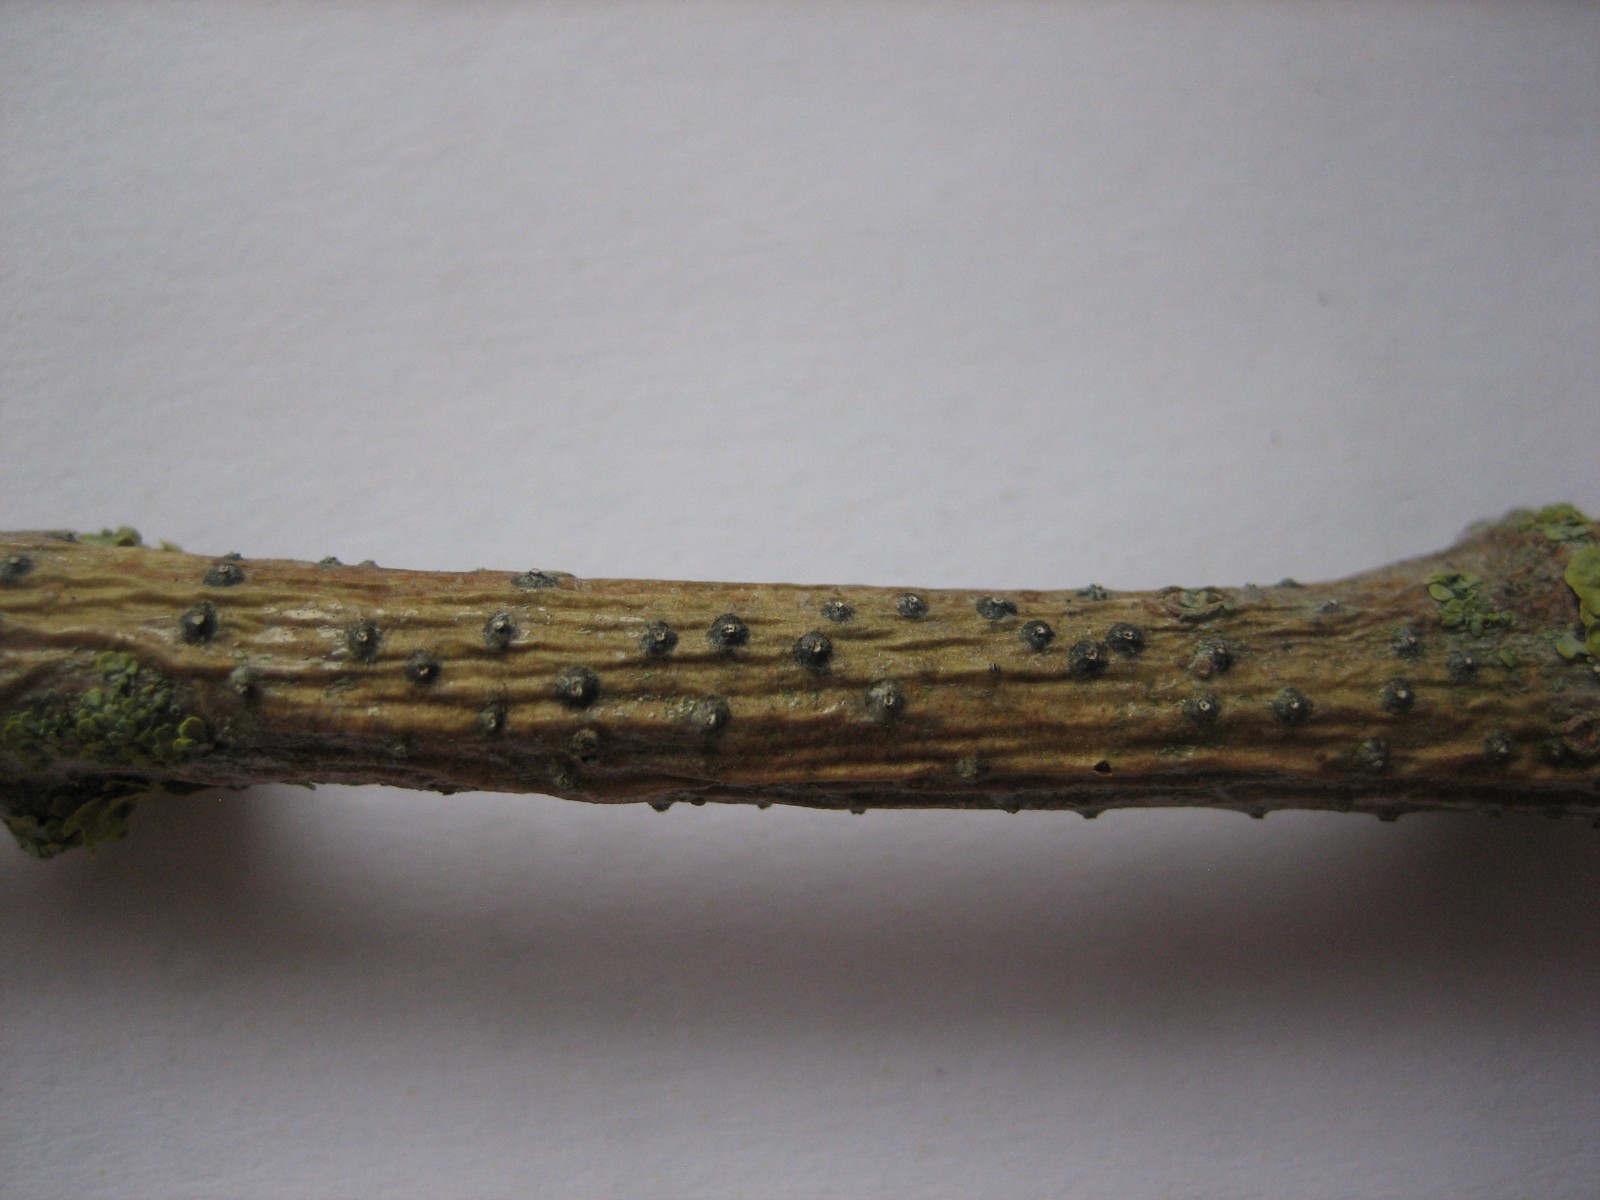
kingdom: Fungi
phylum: Ascomycota
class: Sordariomycetes
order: Diaporthales
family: Valsaceae
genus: Valsa
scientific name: Valsa
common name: kulknippe
